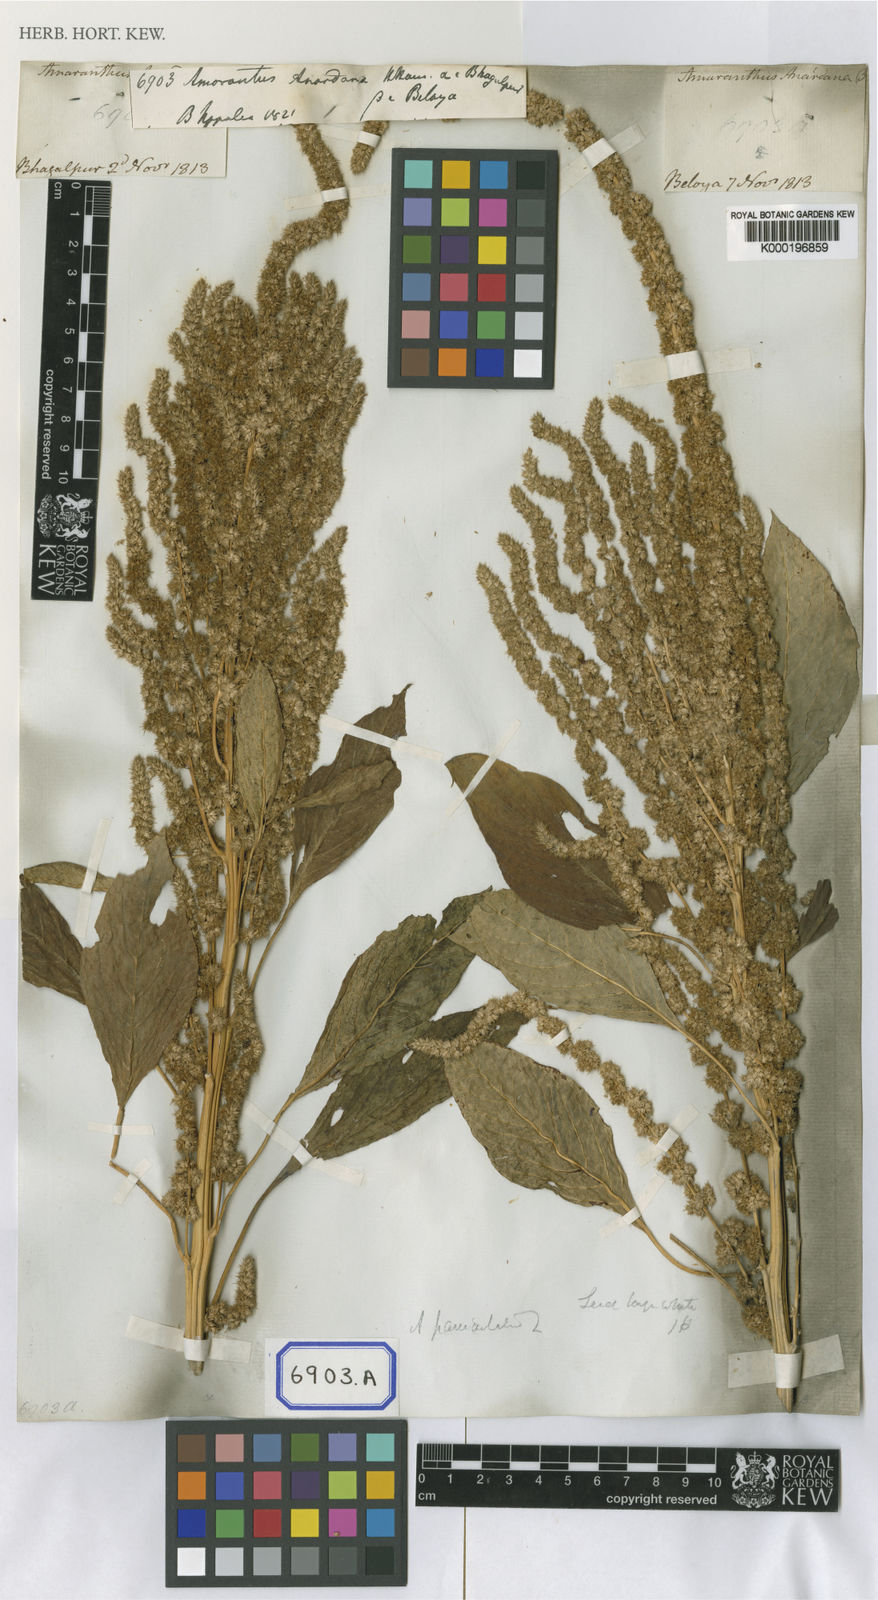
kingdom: Plantae
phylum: Tracheophyta
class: Magnoliopsida
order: Caryophyllales
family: Amaranthaceae
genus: Amaranthus
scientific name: Amaranthus
